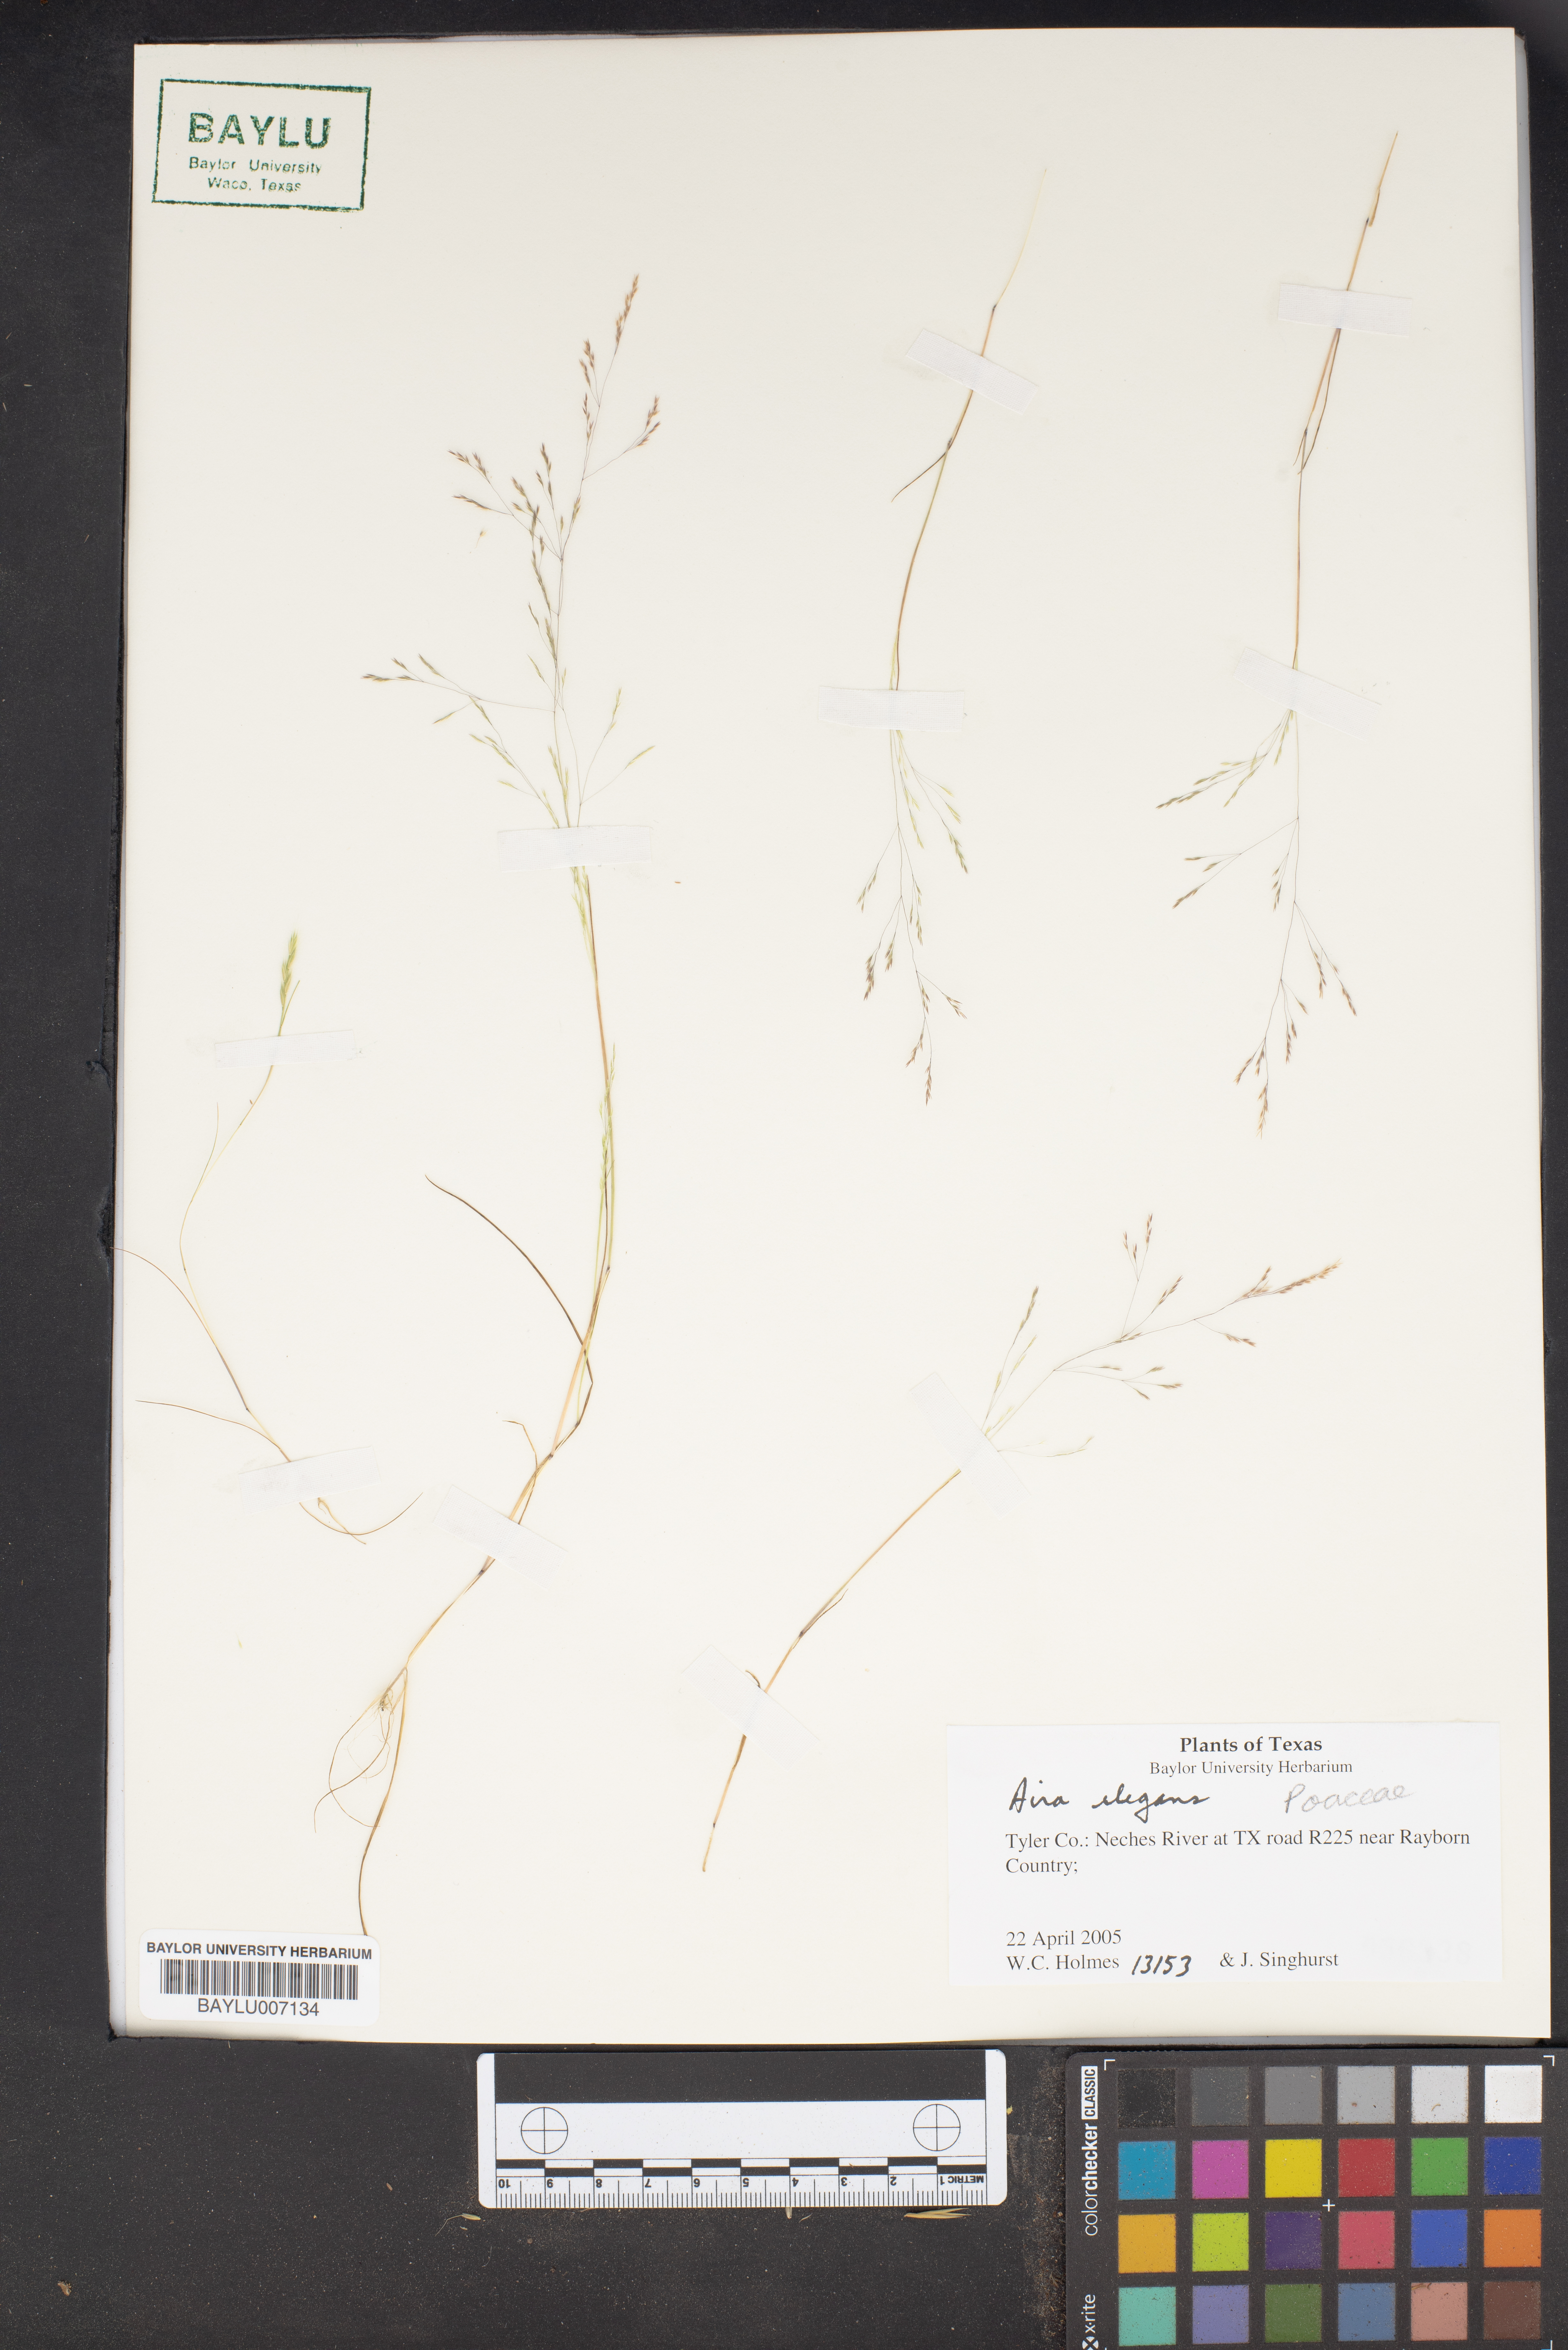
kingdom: Plantae
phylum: Tracheophyta
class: Liliopsida
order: Poales
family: Poaceae
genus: Aira
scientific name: Aira elegans
